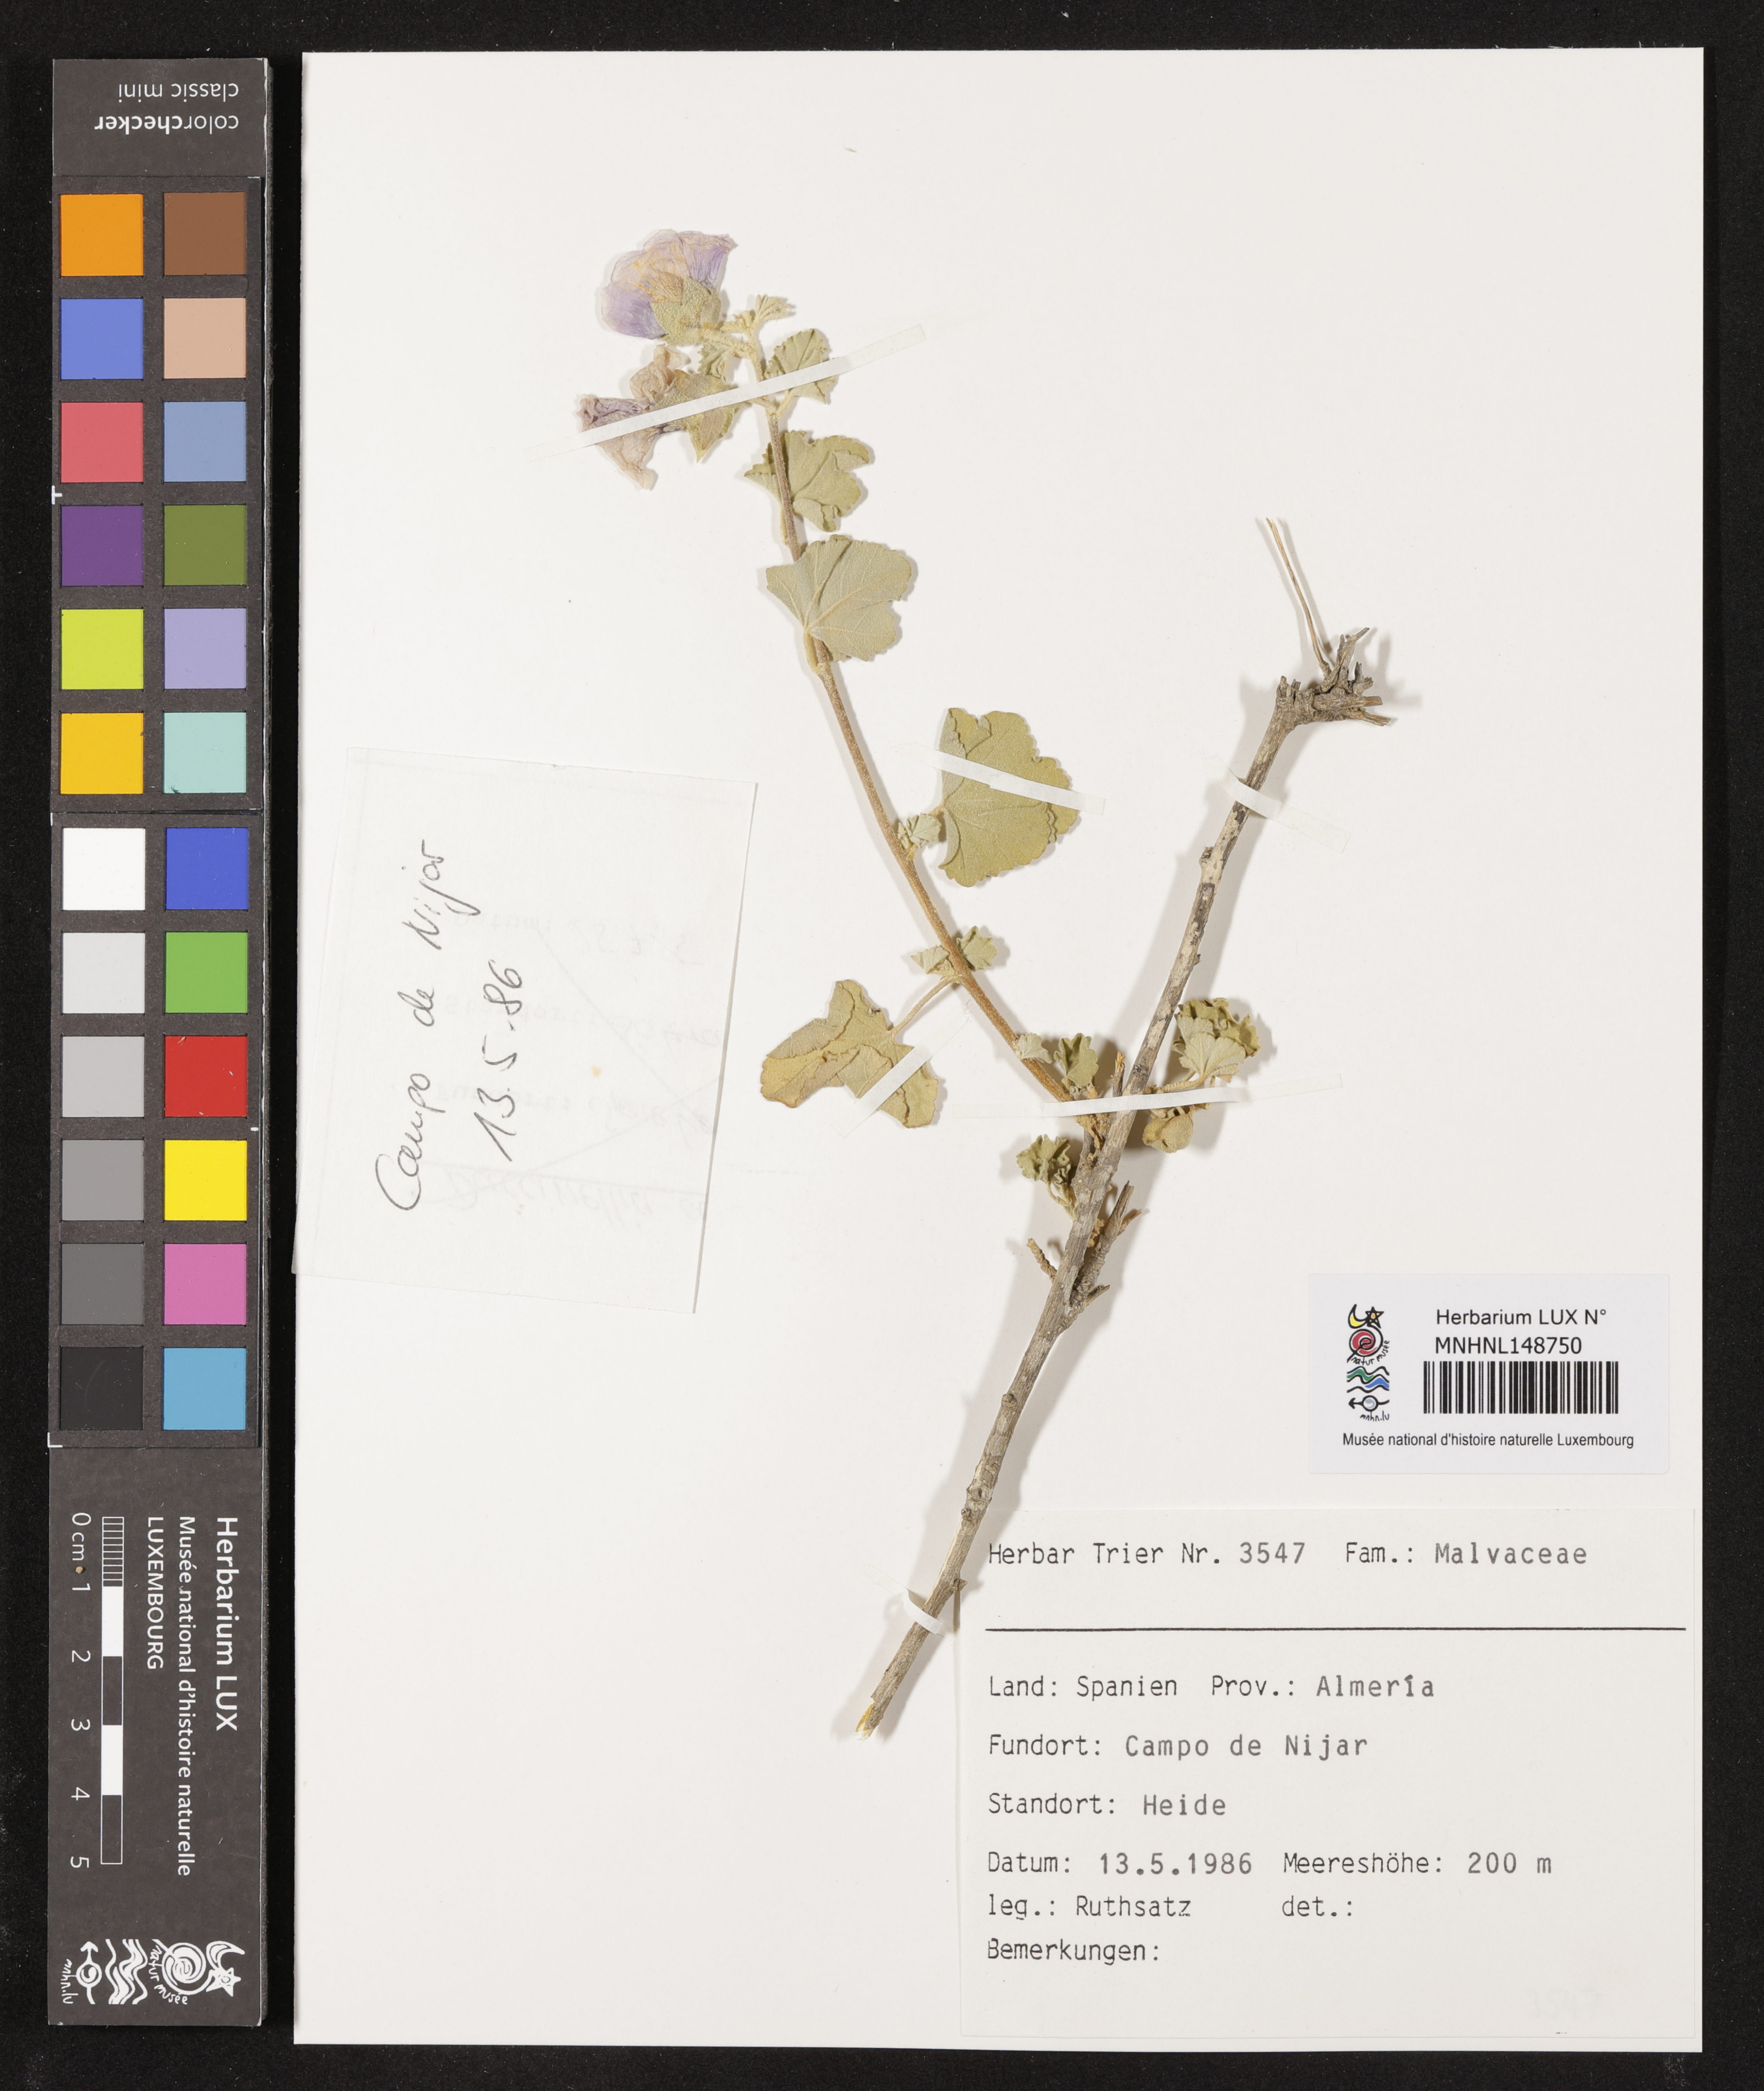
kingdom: Plantae
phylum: Tracheophyta
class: Magnoliopsida
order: Malvales
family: Malvaceae
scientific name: Malvaceae
